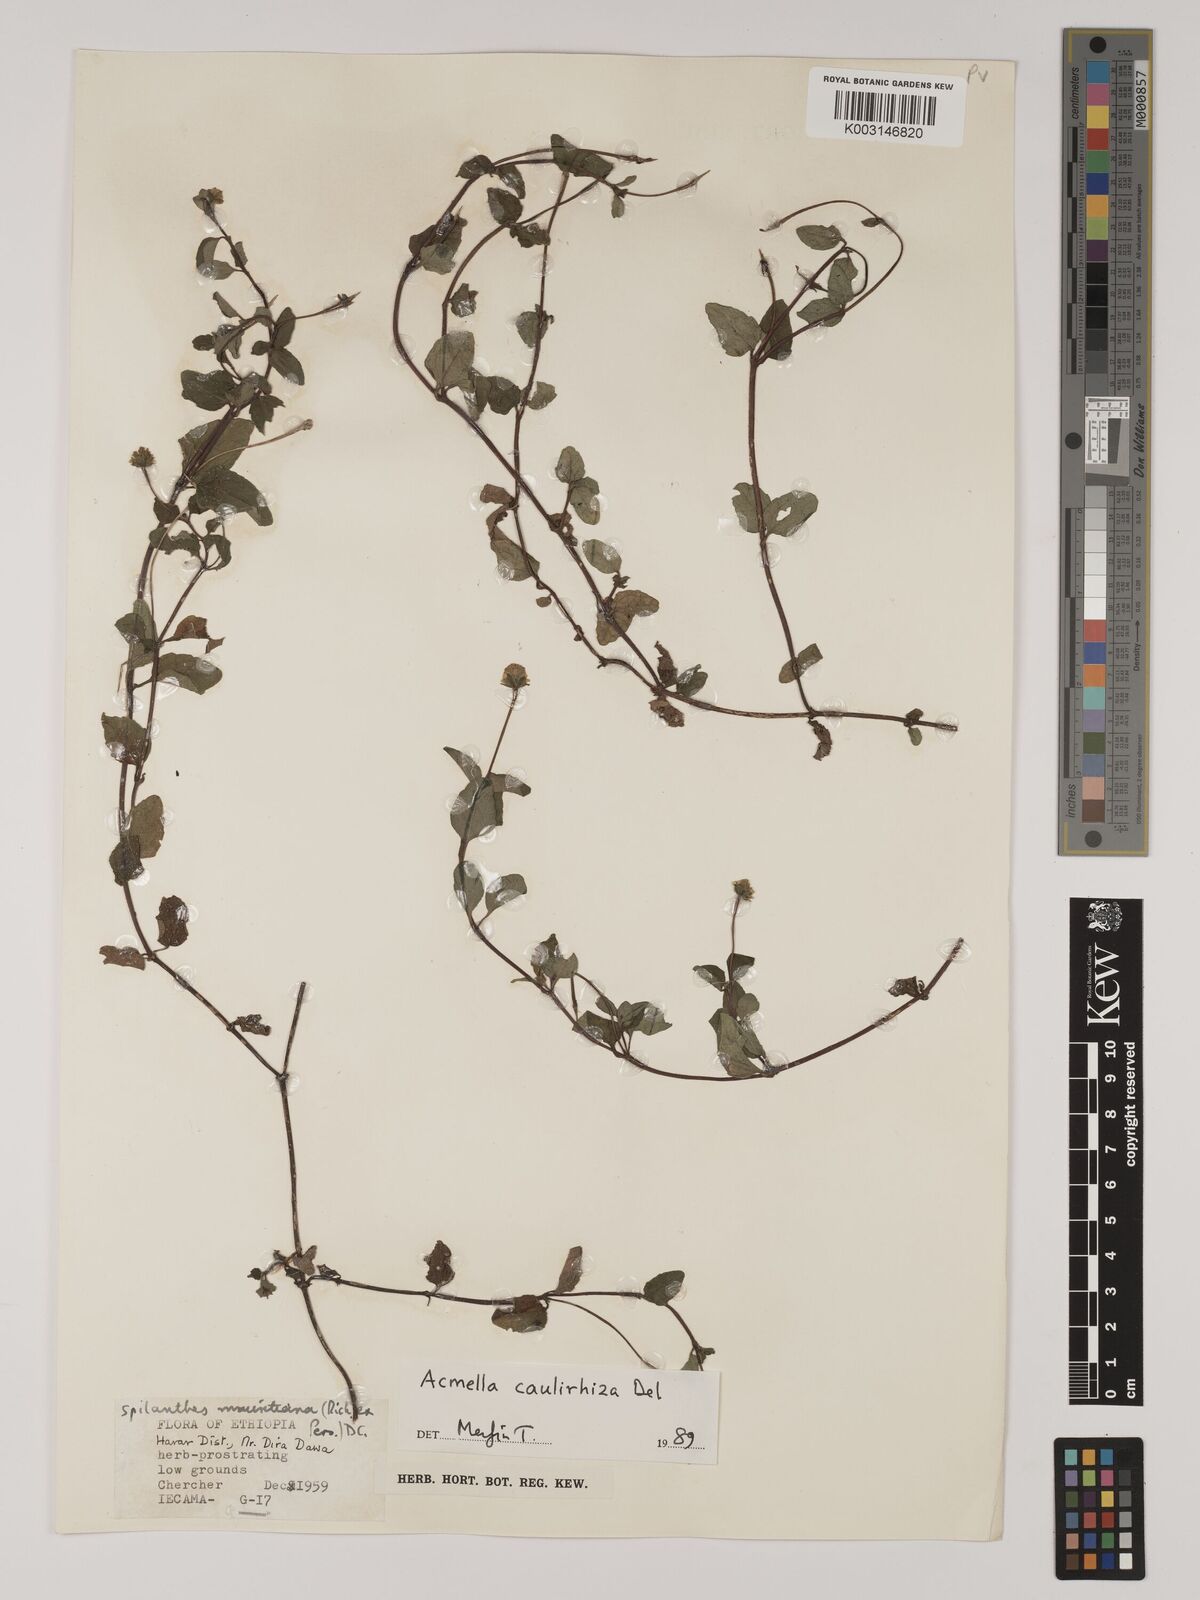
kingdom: Plantae
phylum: Tracheophyta
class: Magnoliopsida
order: Asterales
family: Asteraceae
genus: Blainvillea
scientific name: Blainvillea acmella
